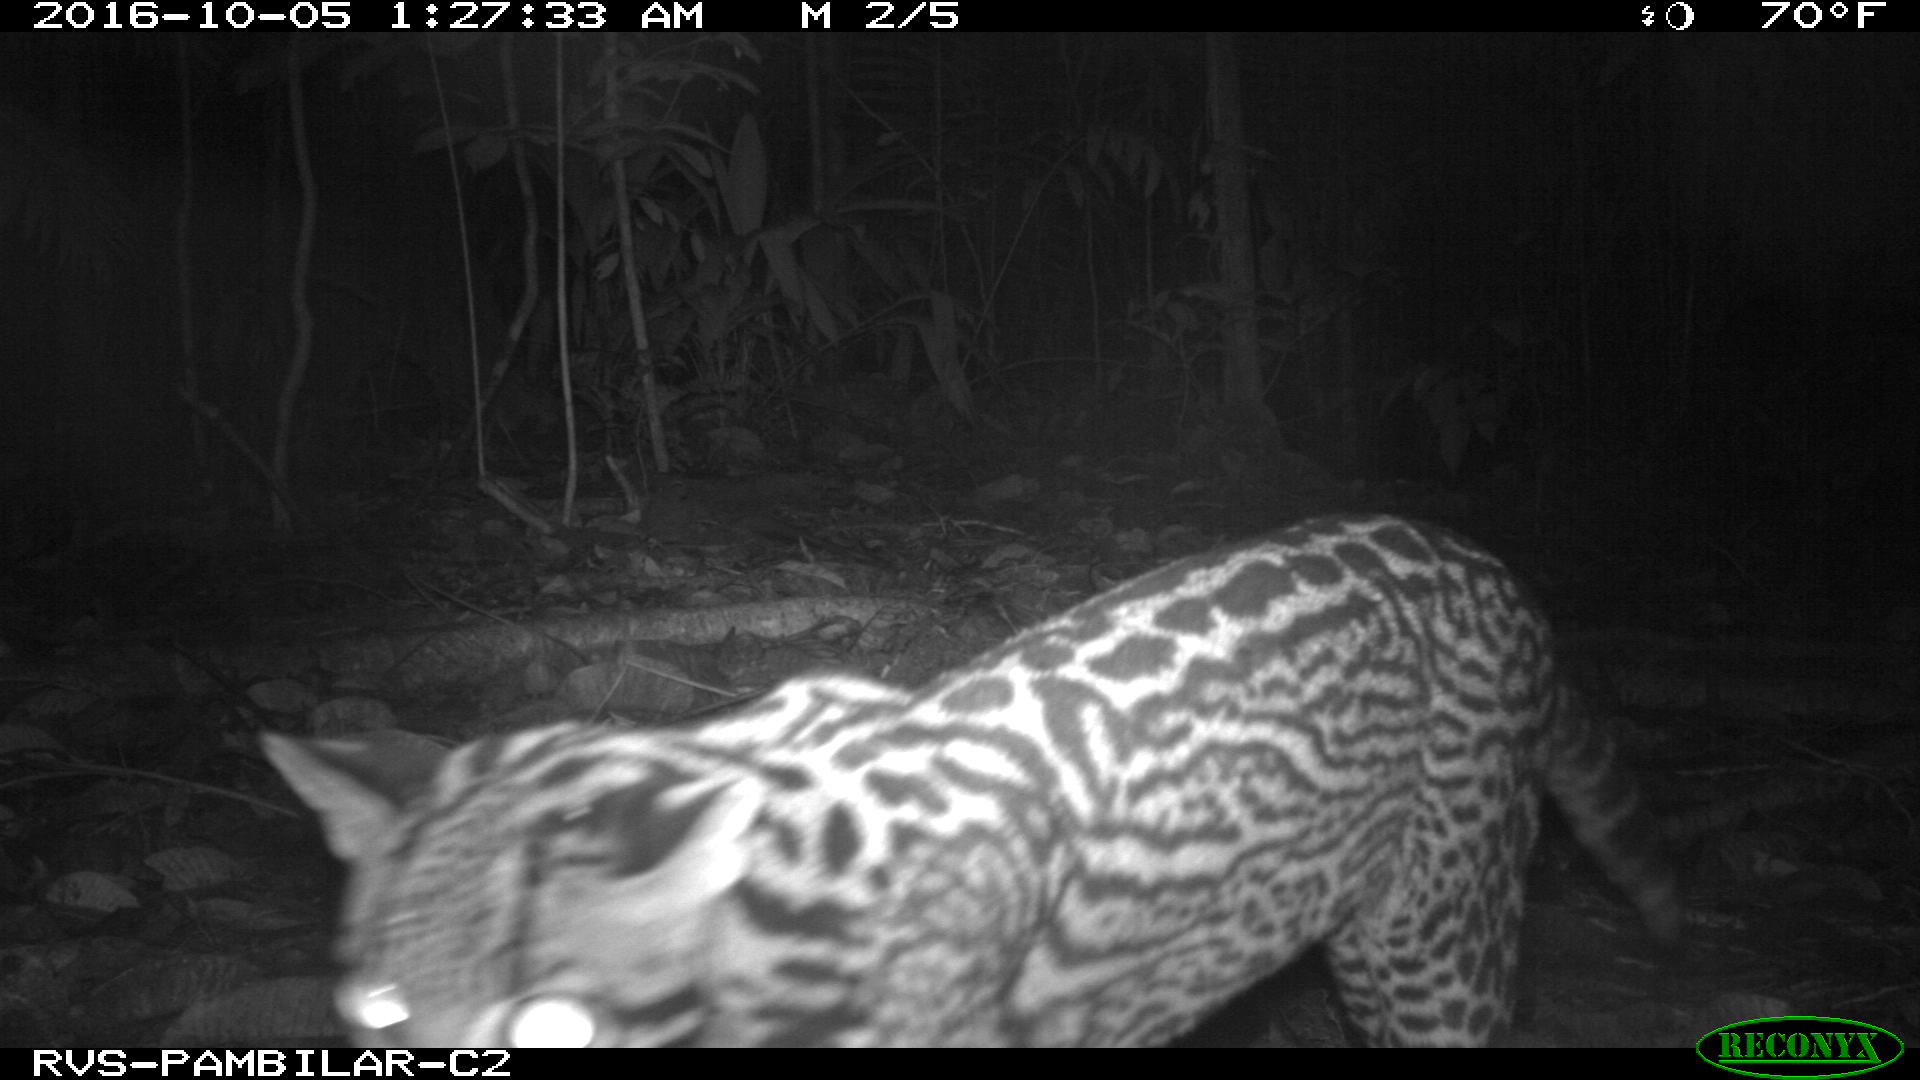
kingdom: Animalia
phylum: Chordata
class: Mammalia
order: Carnivora
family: Felidae
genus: Leopardus
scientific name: Leopardus pardalis
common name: Ocelot
